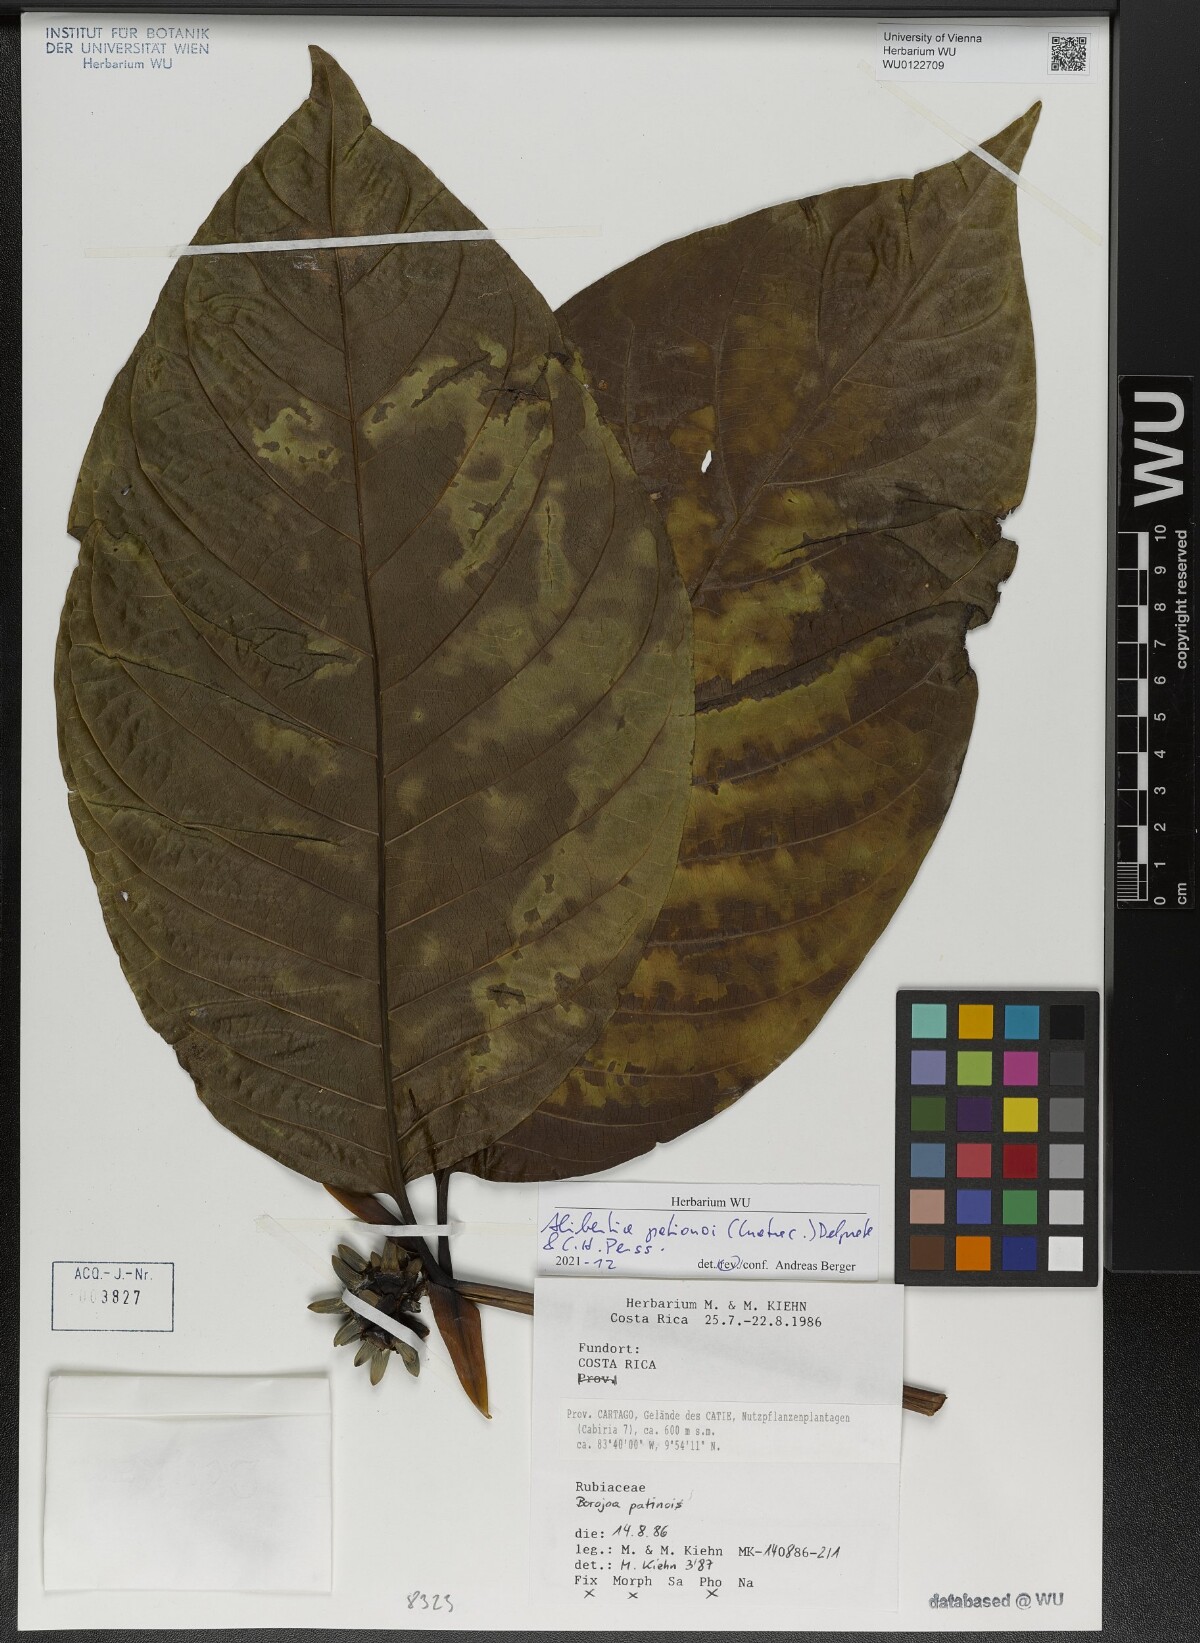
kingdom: Plantae
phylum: Tracheophyta
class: Magnoliopsida
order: Gentianales
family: Rubiaceae
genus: Alibertia
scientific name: Alibertia patinoi
